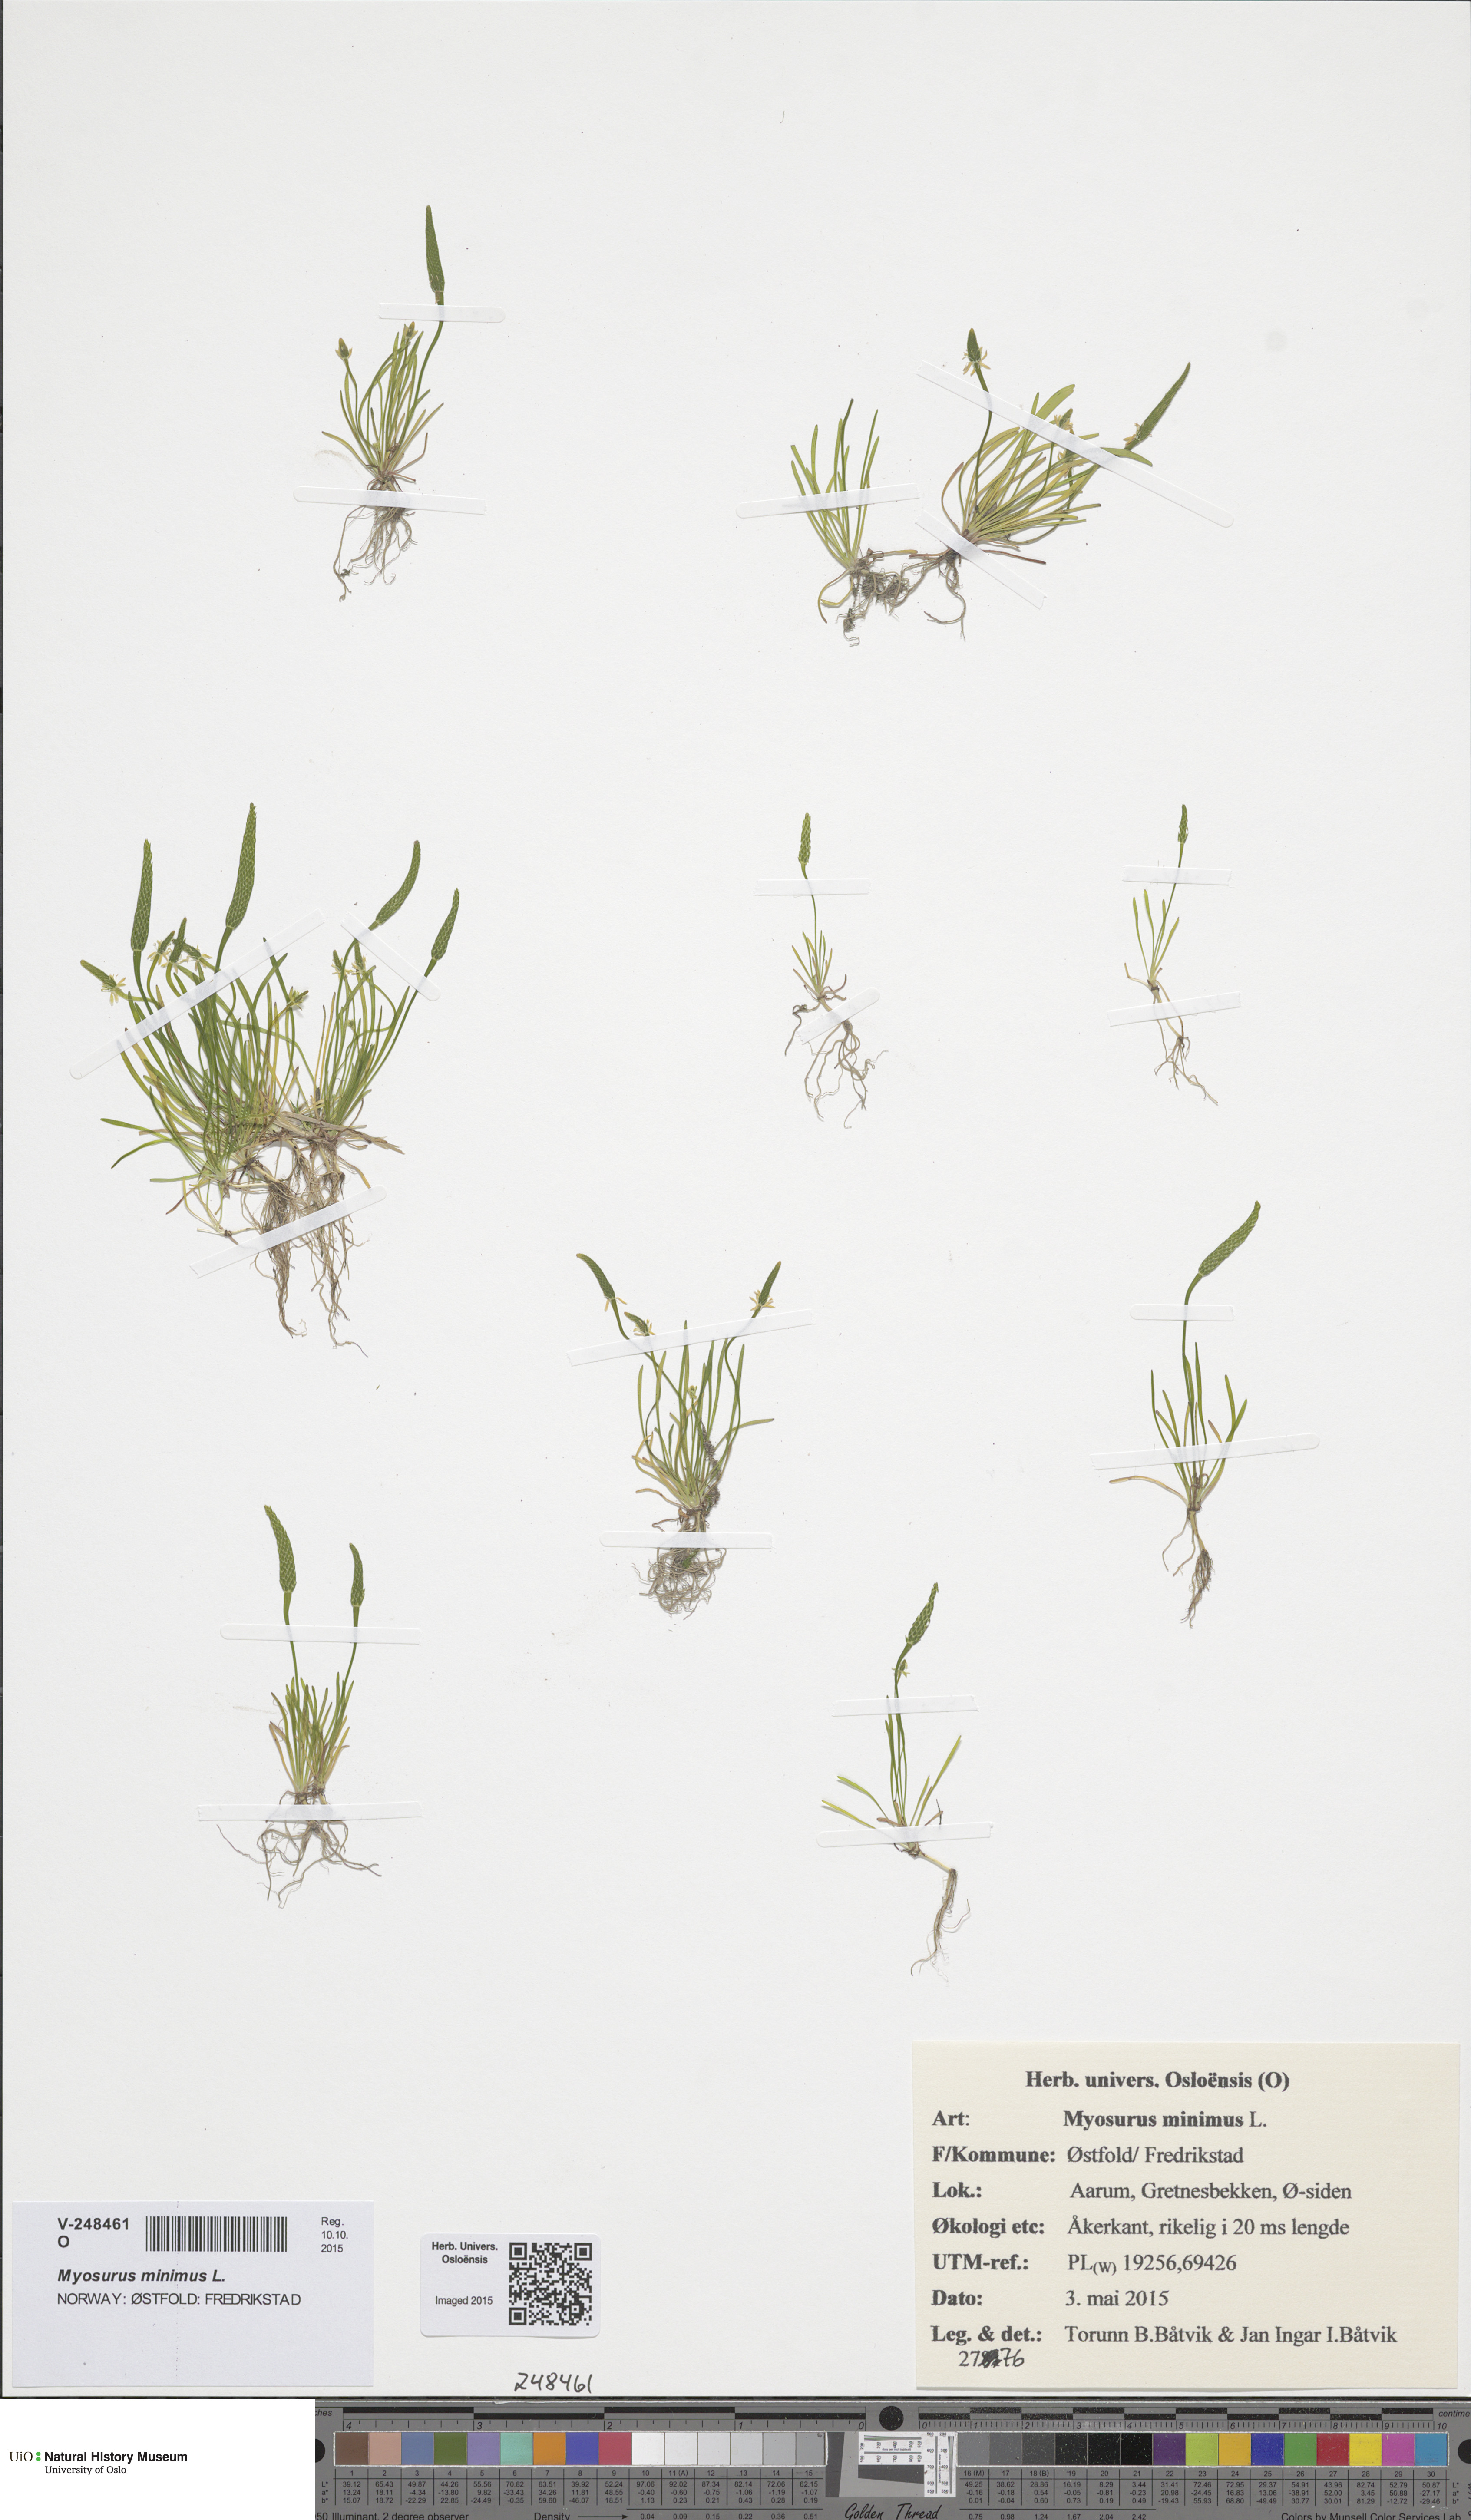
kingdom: Plantae
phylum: Tracheophyta
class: Magnoliopsida
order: Ranunculales
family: Ranunculaceae
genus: Myosurus
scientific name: Myosurus minimus
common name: Mousetail
